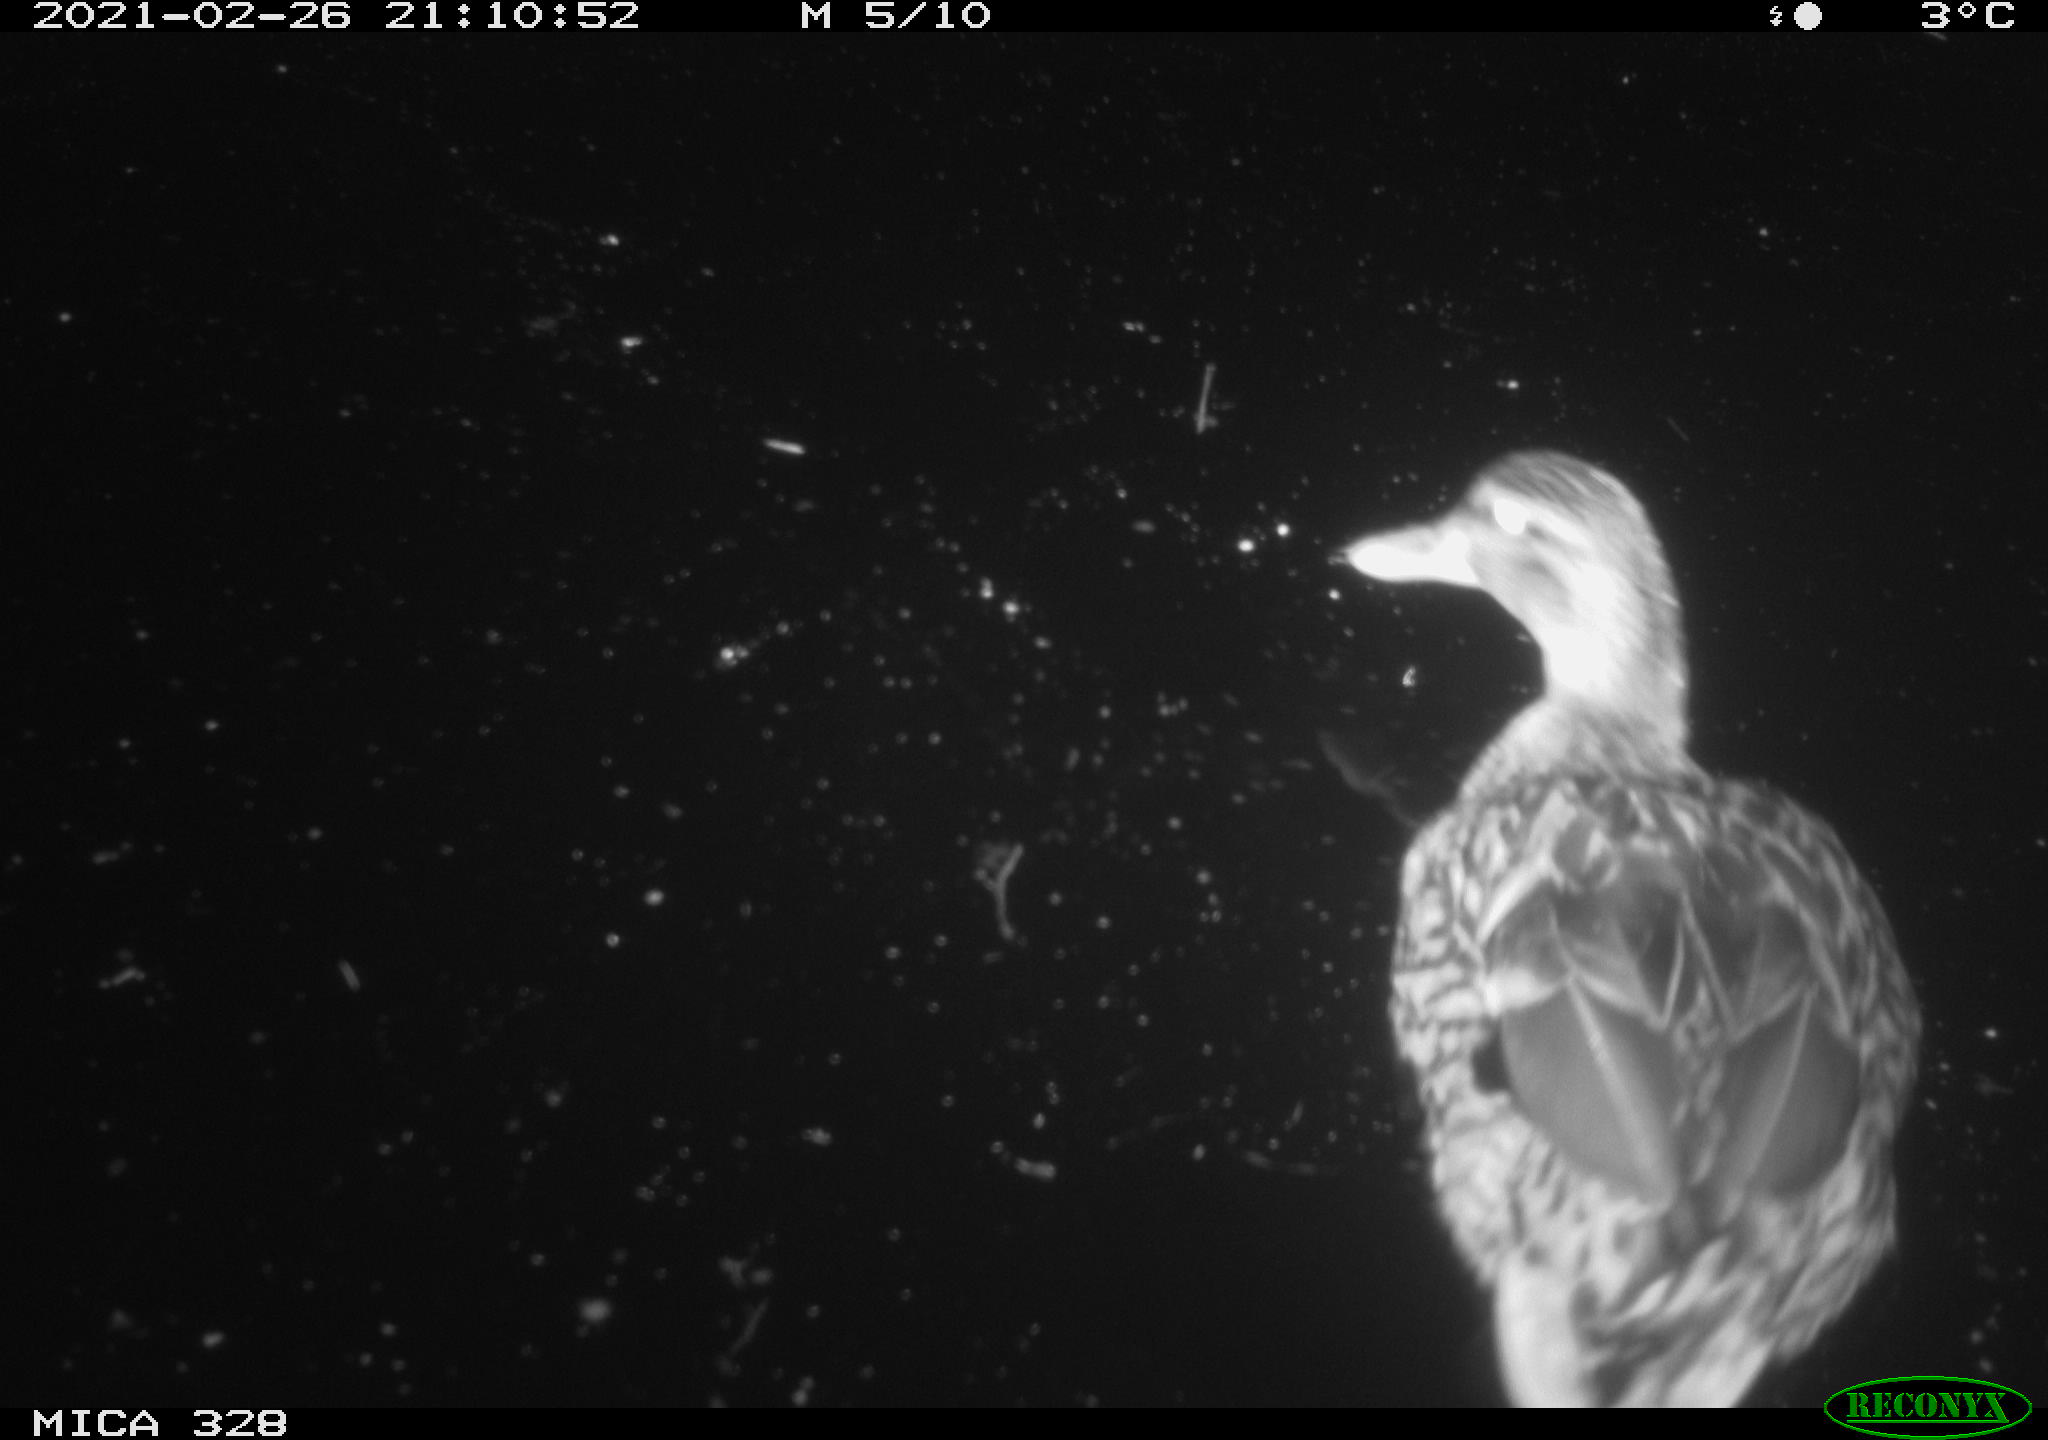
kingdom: Animalia
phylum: Chordata
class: Aves
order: Anseriformes
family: Anatidae
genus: Anas
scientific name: Anas platyrhynchos
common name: Mallard
